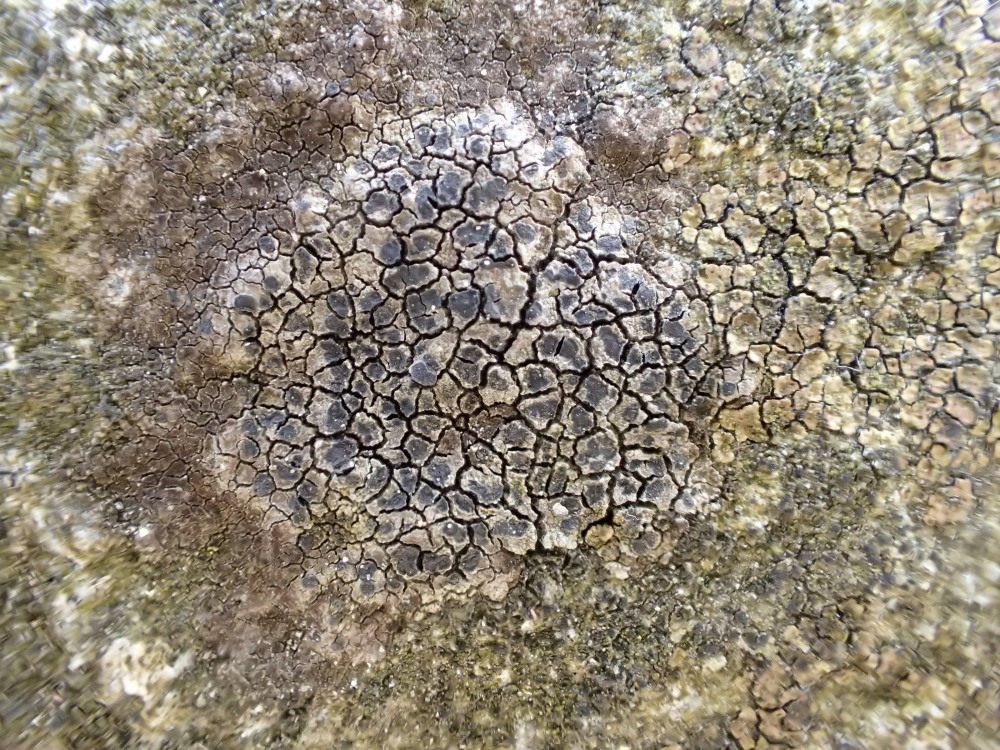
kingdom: Fungi
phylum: Ascomycota
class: Lecanoromycetes
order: Rhizocarpales
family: Rhizocarpaceae
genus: Rhizocarpon
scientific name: Rhizocarpon reductum
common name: mørk landkortlav
